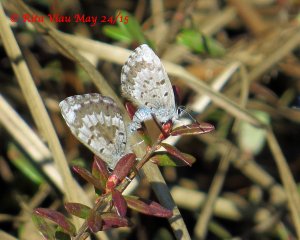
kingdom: Animalia
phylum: Arthropoda
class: Insecta
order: Lepidoptera
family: Lycaenidae
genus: Celastrina
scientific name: Celastrina lucia
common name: Northern Spring Azure
